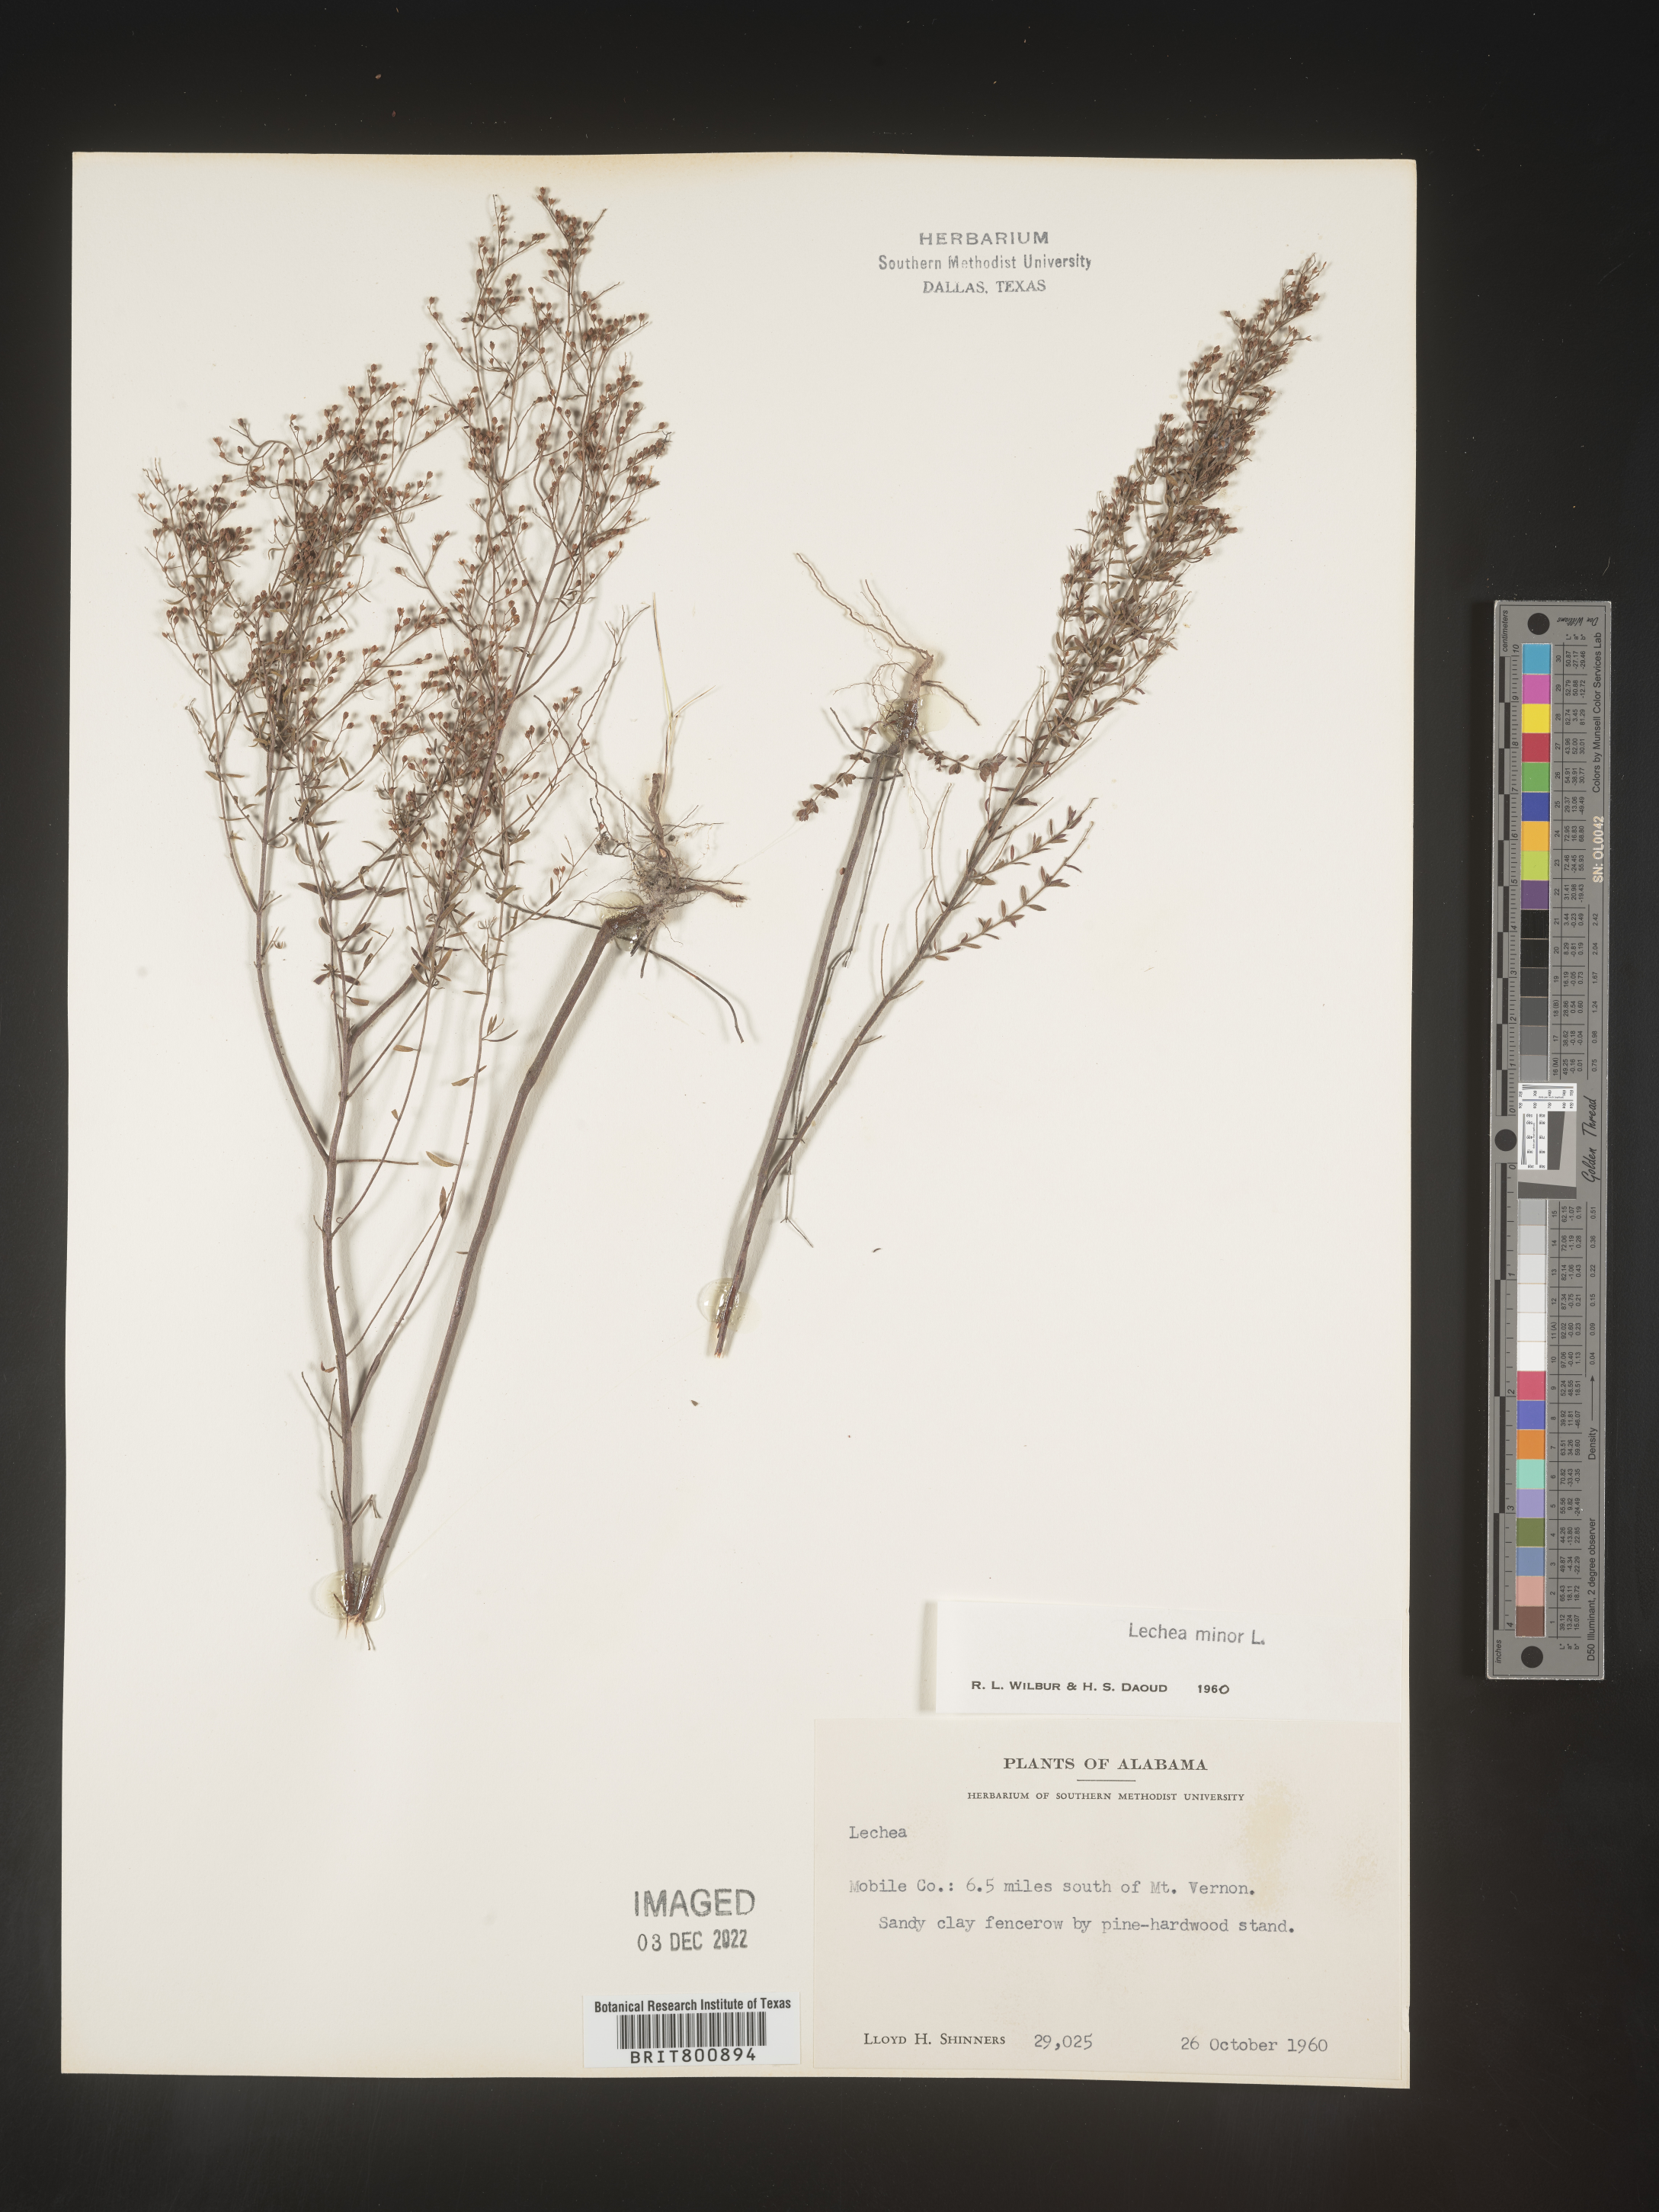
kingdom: Plantae
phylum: Tracheophyta
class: Magnoliopsida
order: Malvales
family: Cistaceae
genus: Lechea
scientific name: Lechea minor
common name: Thyme-leaf pinweed
